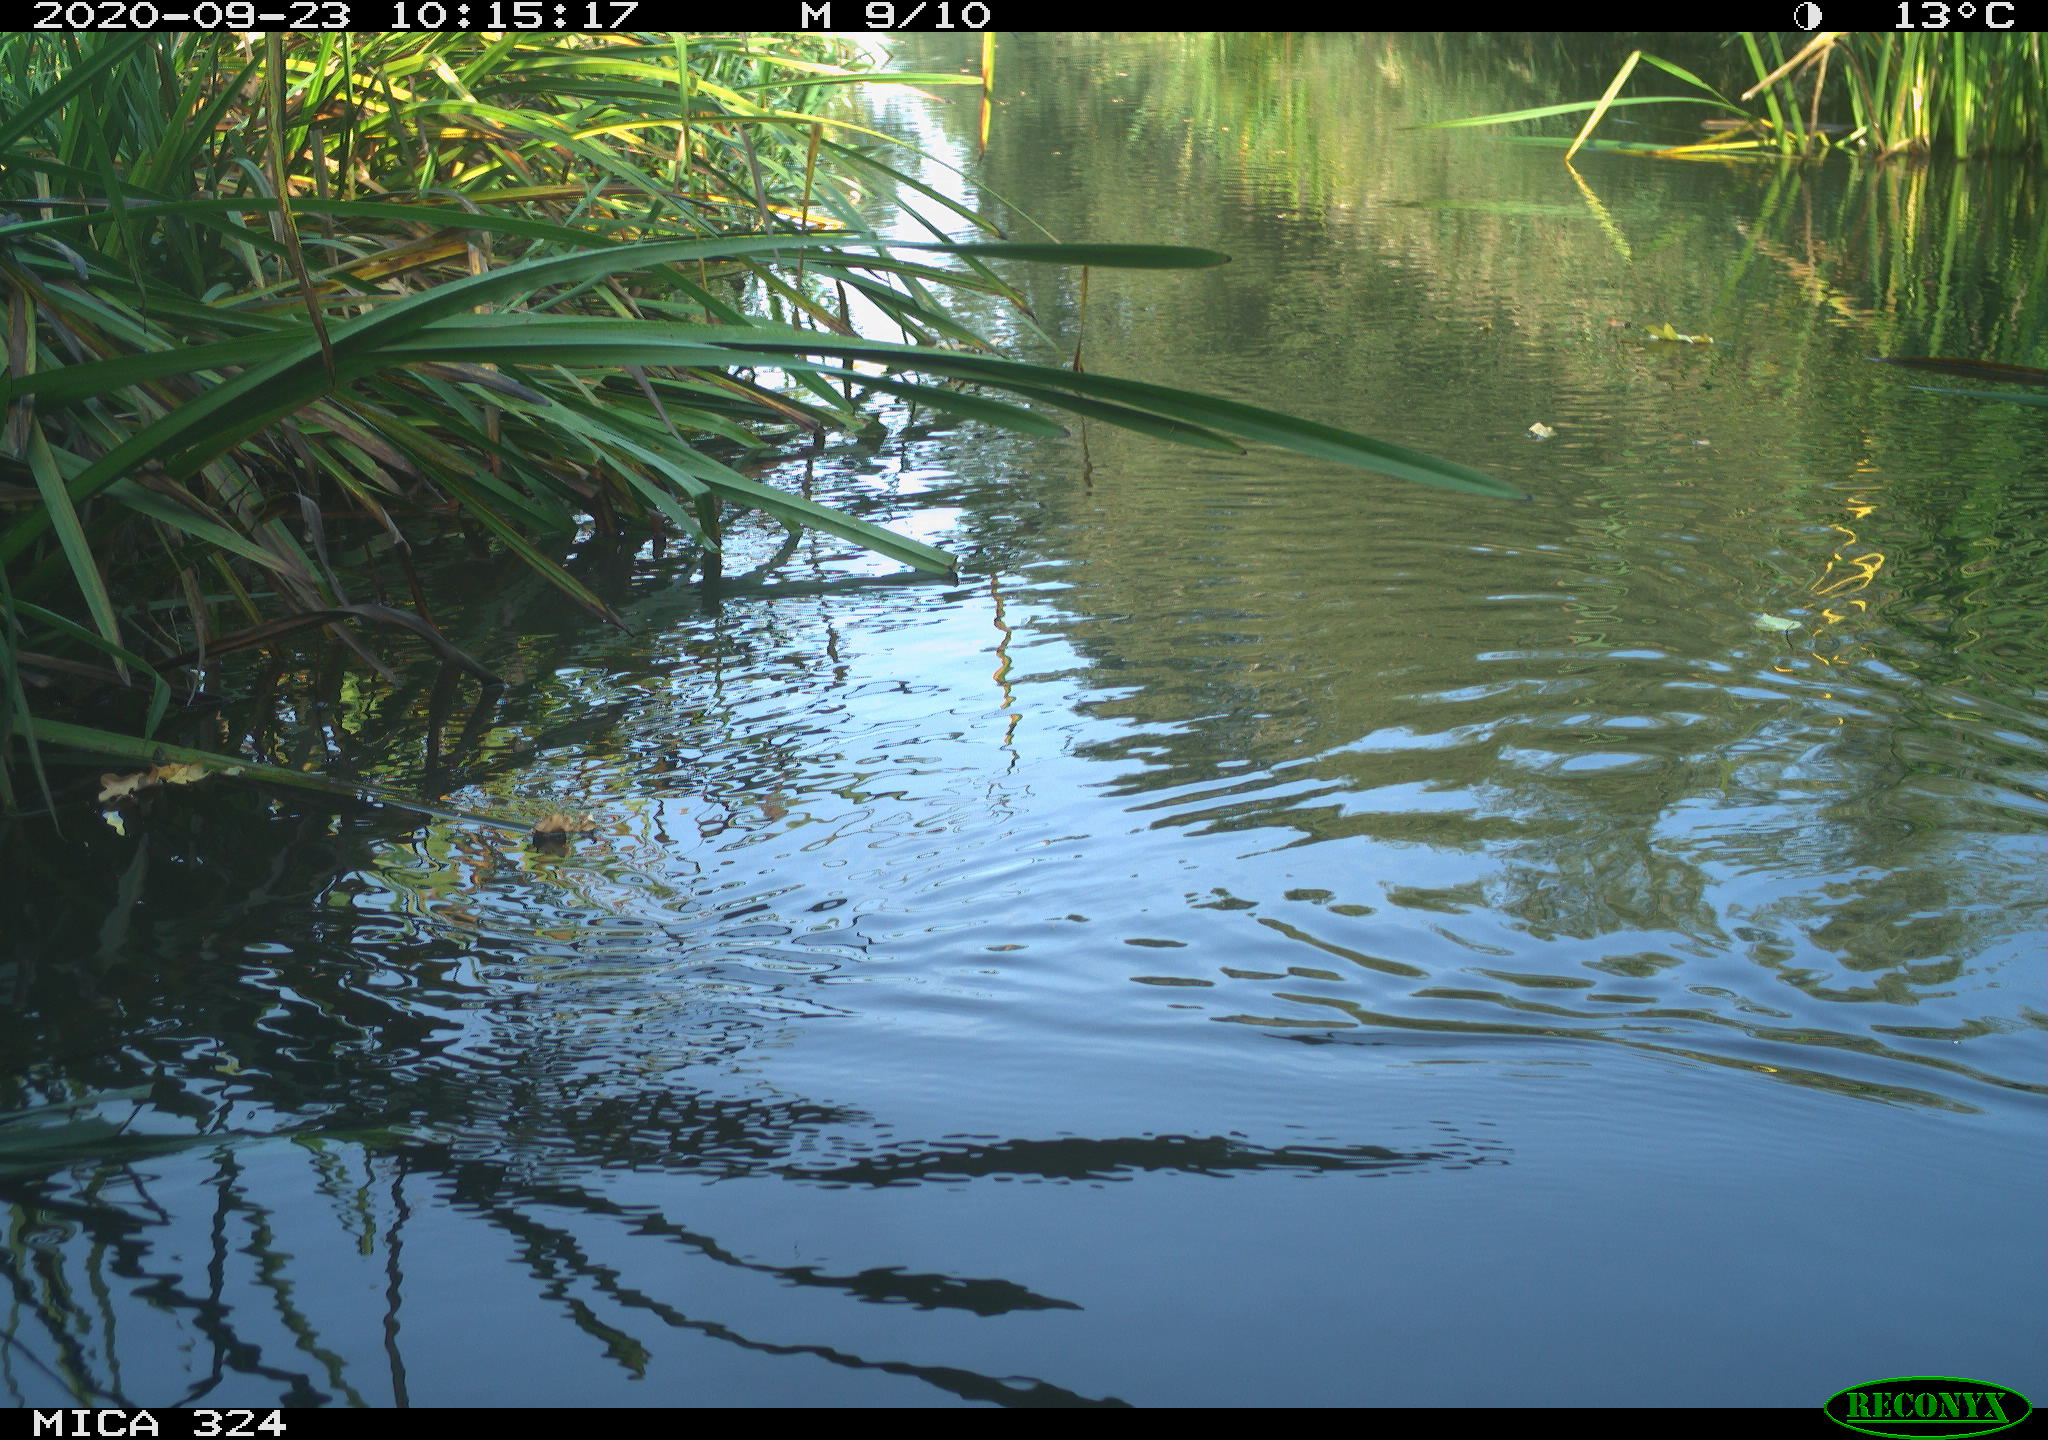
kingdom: Animalia
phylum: Chordata
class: Aves
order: Gruiformes
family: Rallidae
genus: Gallinula
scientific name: Gallinula chloropus
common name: Common moorhen
